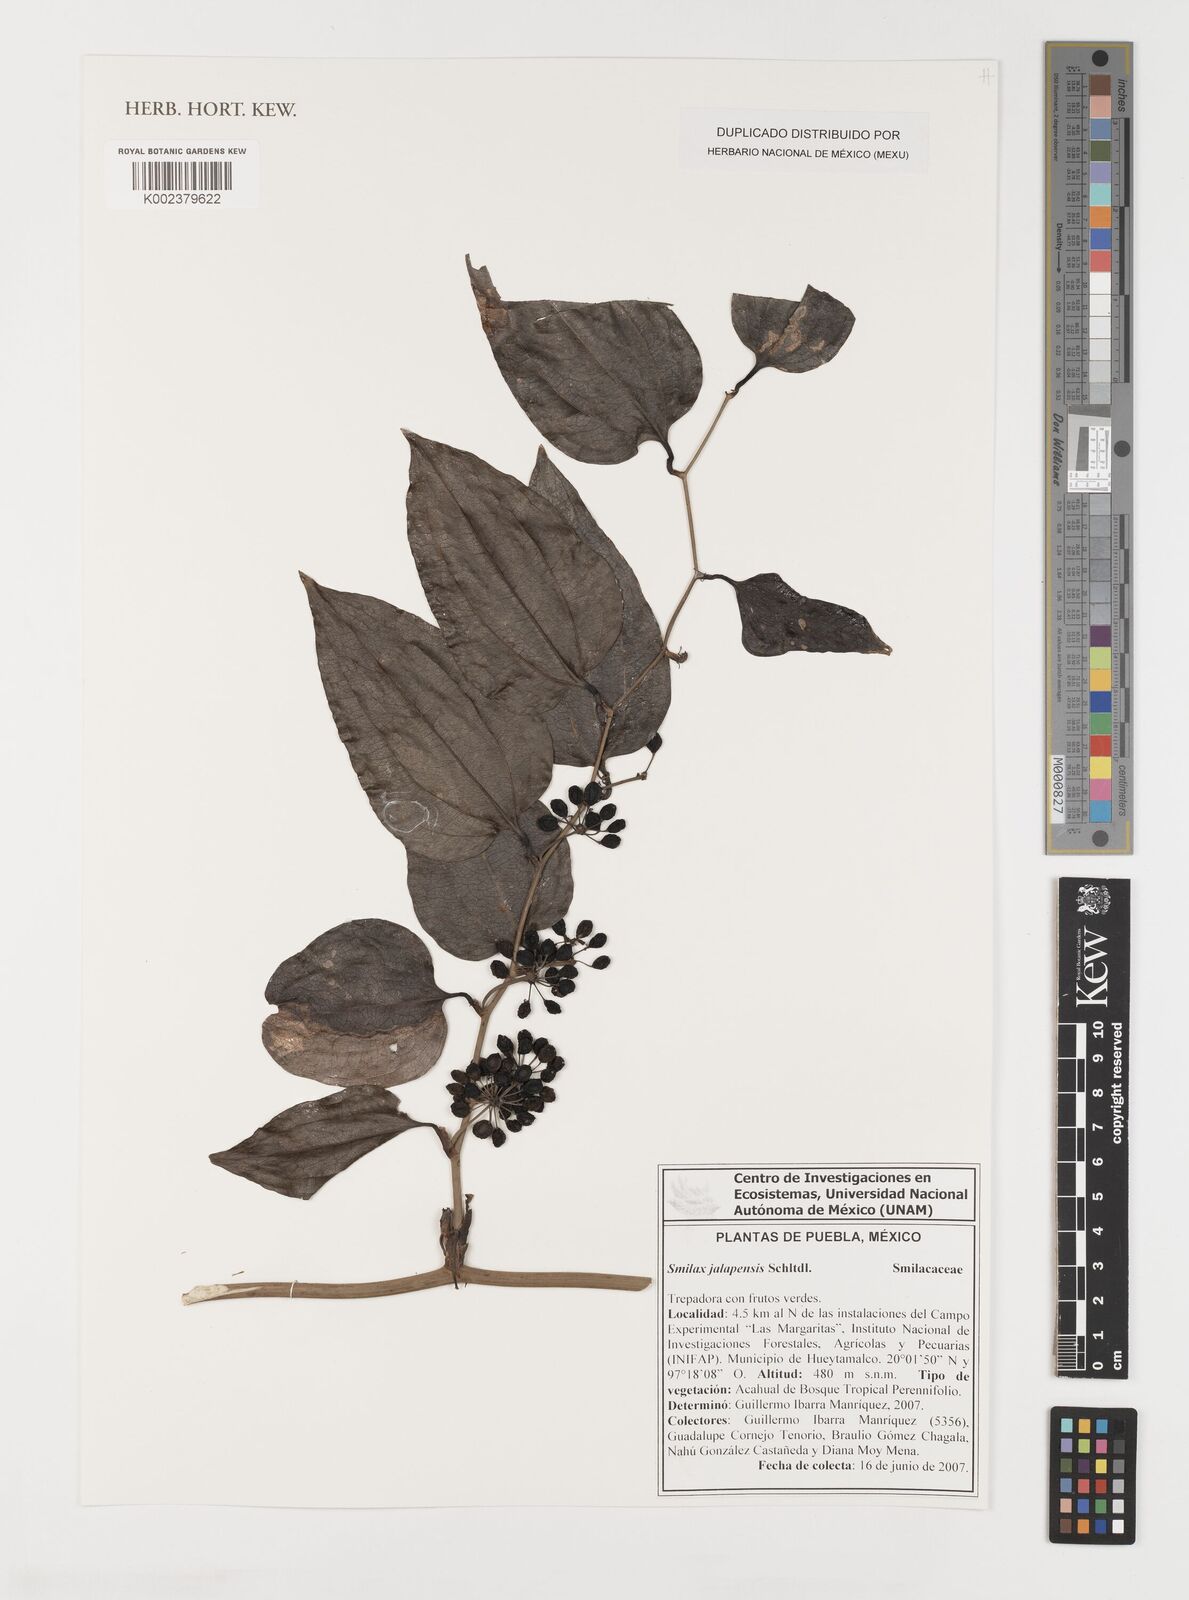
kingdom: Plantae
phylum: Tracheophyta
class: Liliopsida
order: Liliales
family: Smilacaceae
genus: Smilax
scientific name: Smilax moranensis
